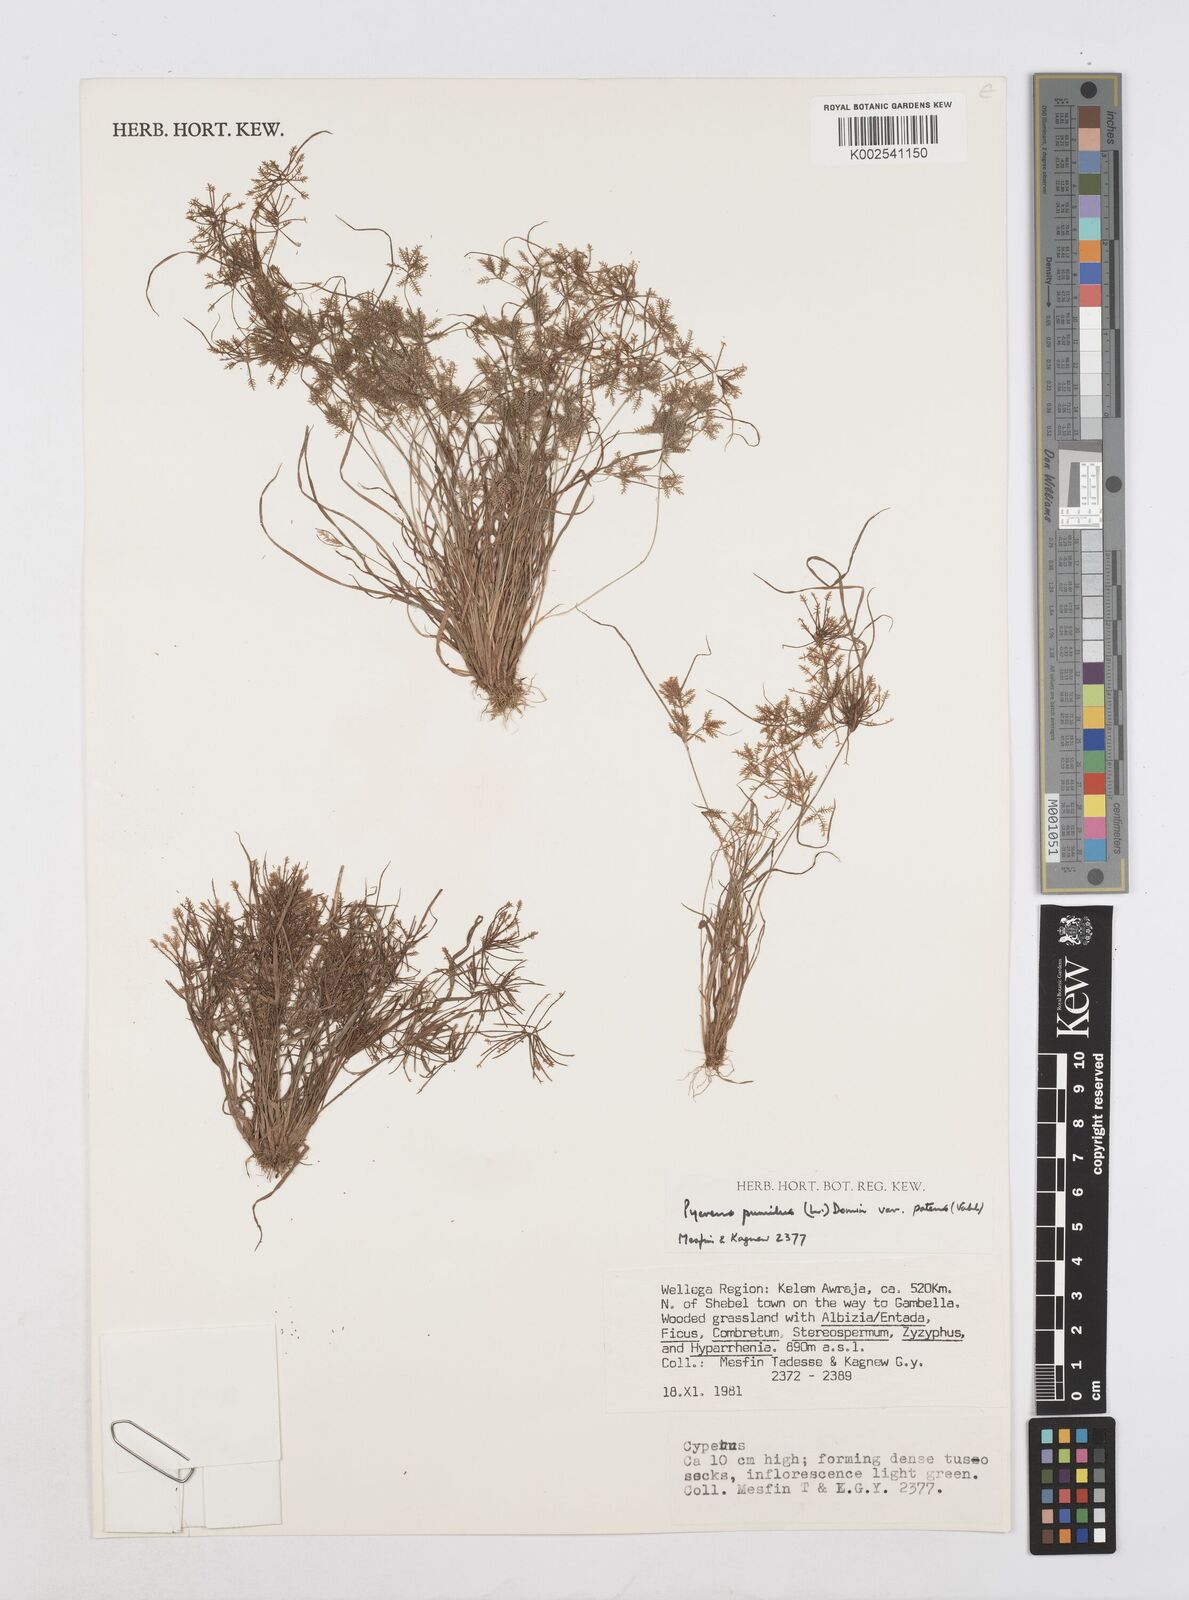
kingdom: Plantae
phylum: Tracheophyta
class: Liliopsida
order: Poales
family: Cyperaceae
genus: Cyperus
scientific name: Cyperus pumilus
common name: Low flatsedge
